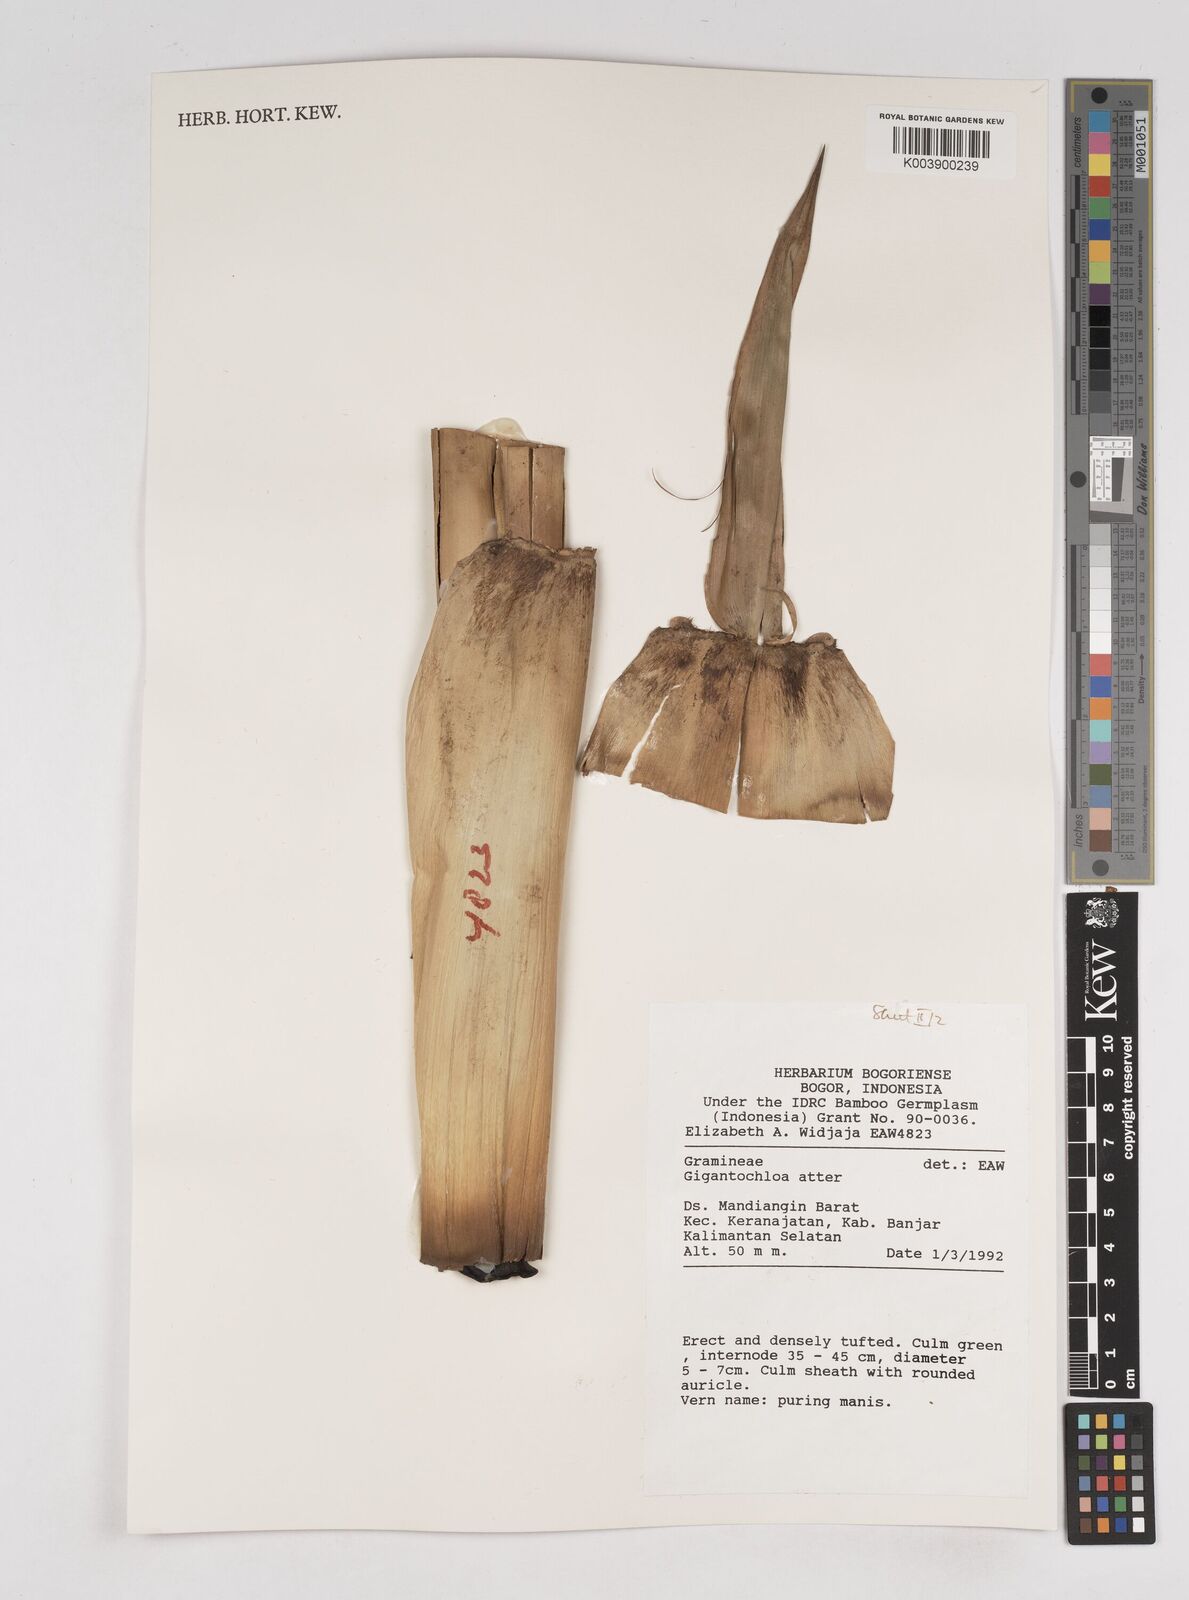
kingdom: Plantae
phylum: Tracheophyta
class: Liliopsida
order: Poales
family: Poaceae
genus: Gigantochloa
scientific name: Gigantochloa atter
